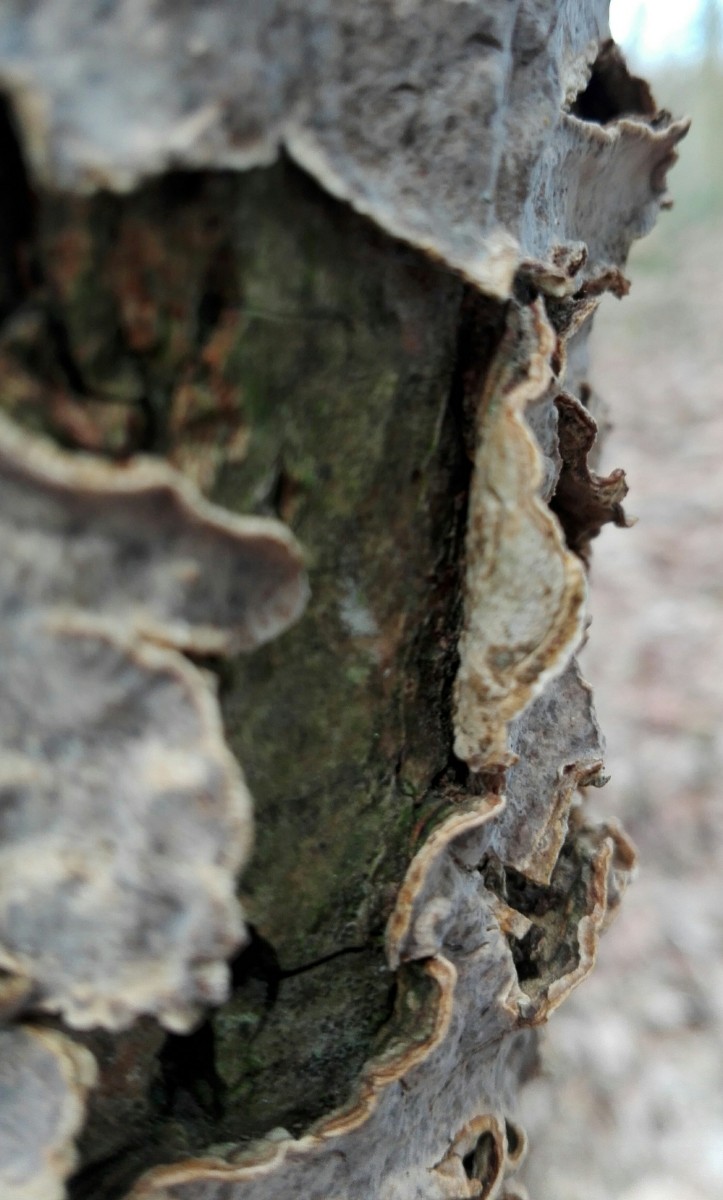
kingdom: Fungi
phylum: Basidiomycota
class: Agaricomycetes
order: Russulales
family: Stereaceae
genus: Stereum
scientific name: Stereum rugosum
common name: rynket lædersvamp
